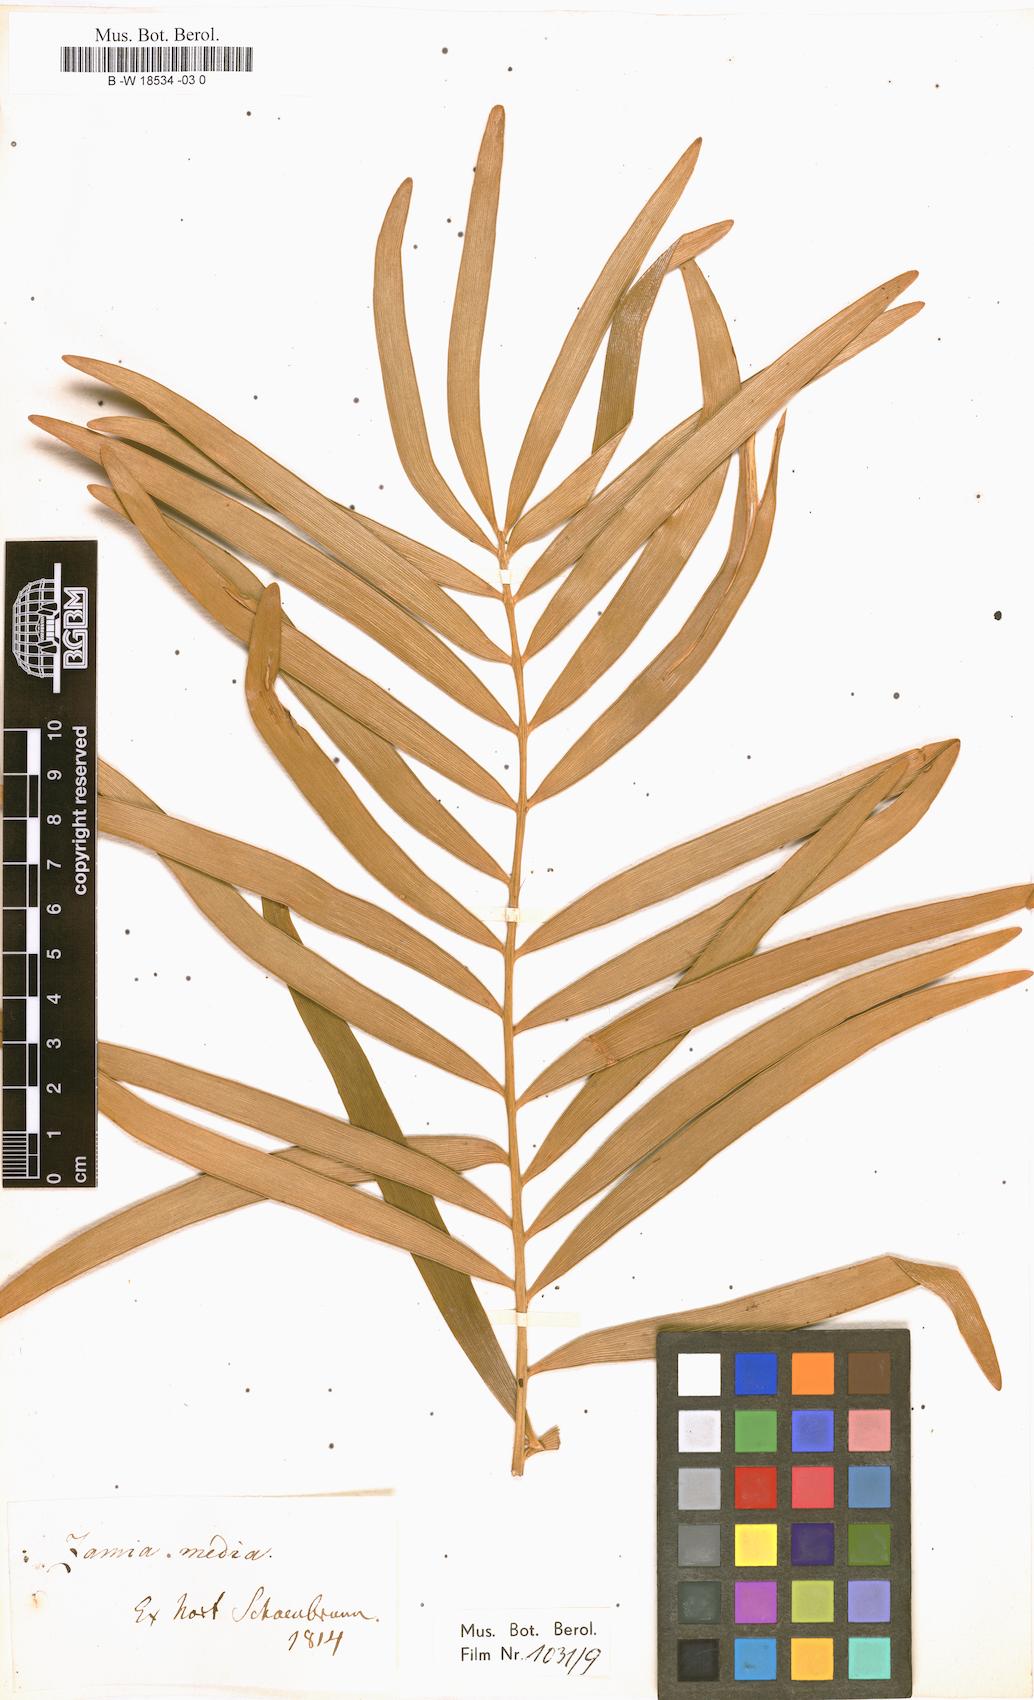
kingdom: Plantae
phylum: Tracheophyta
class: Cycadopsida
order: Cycadales
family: Zamiaceae
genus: Zamia
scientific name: Zamia integrifolia
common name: Florida arrowroot
